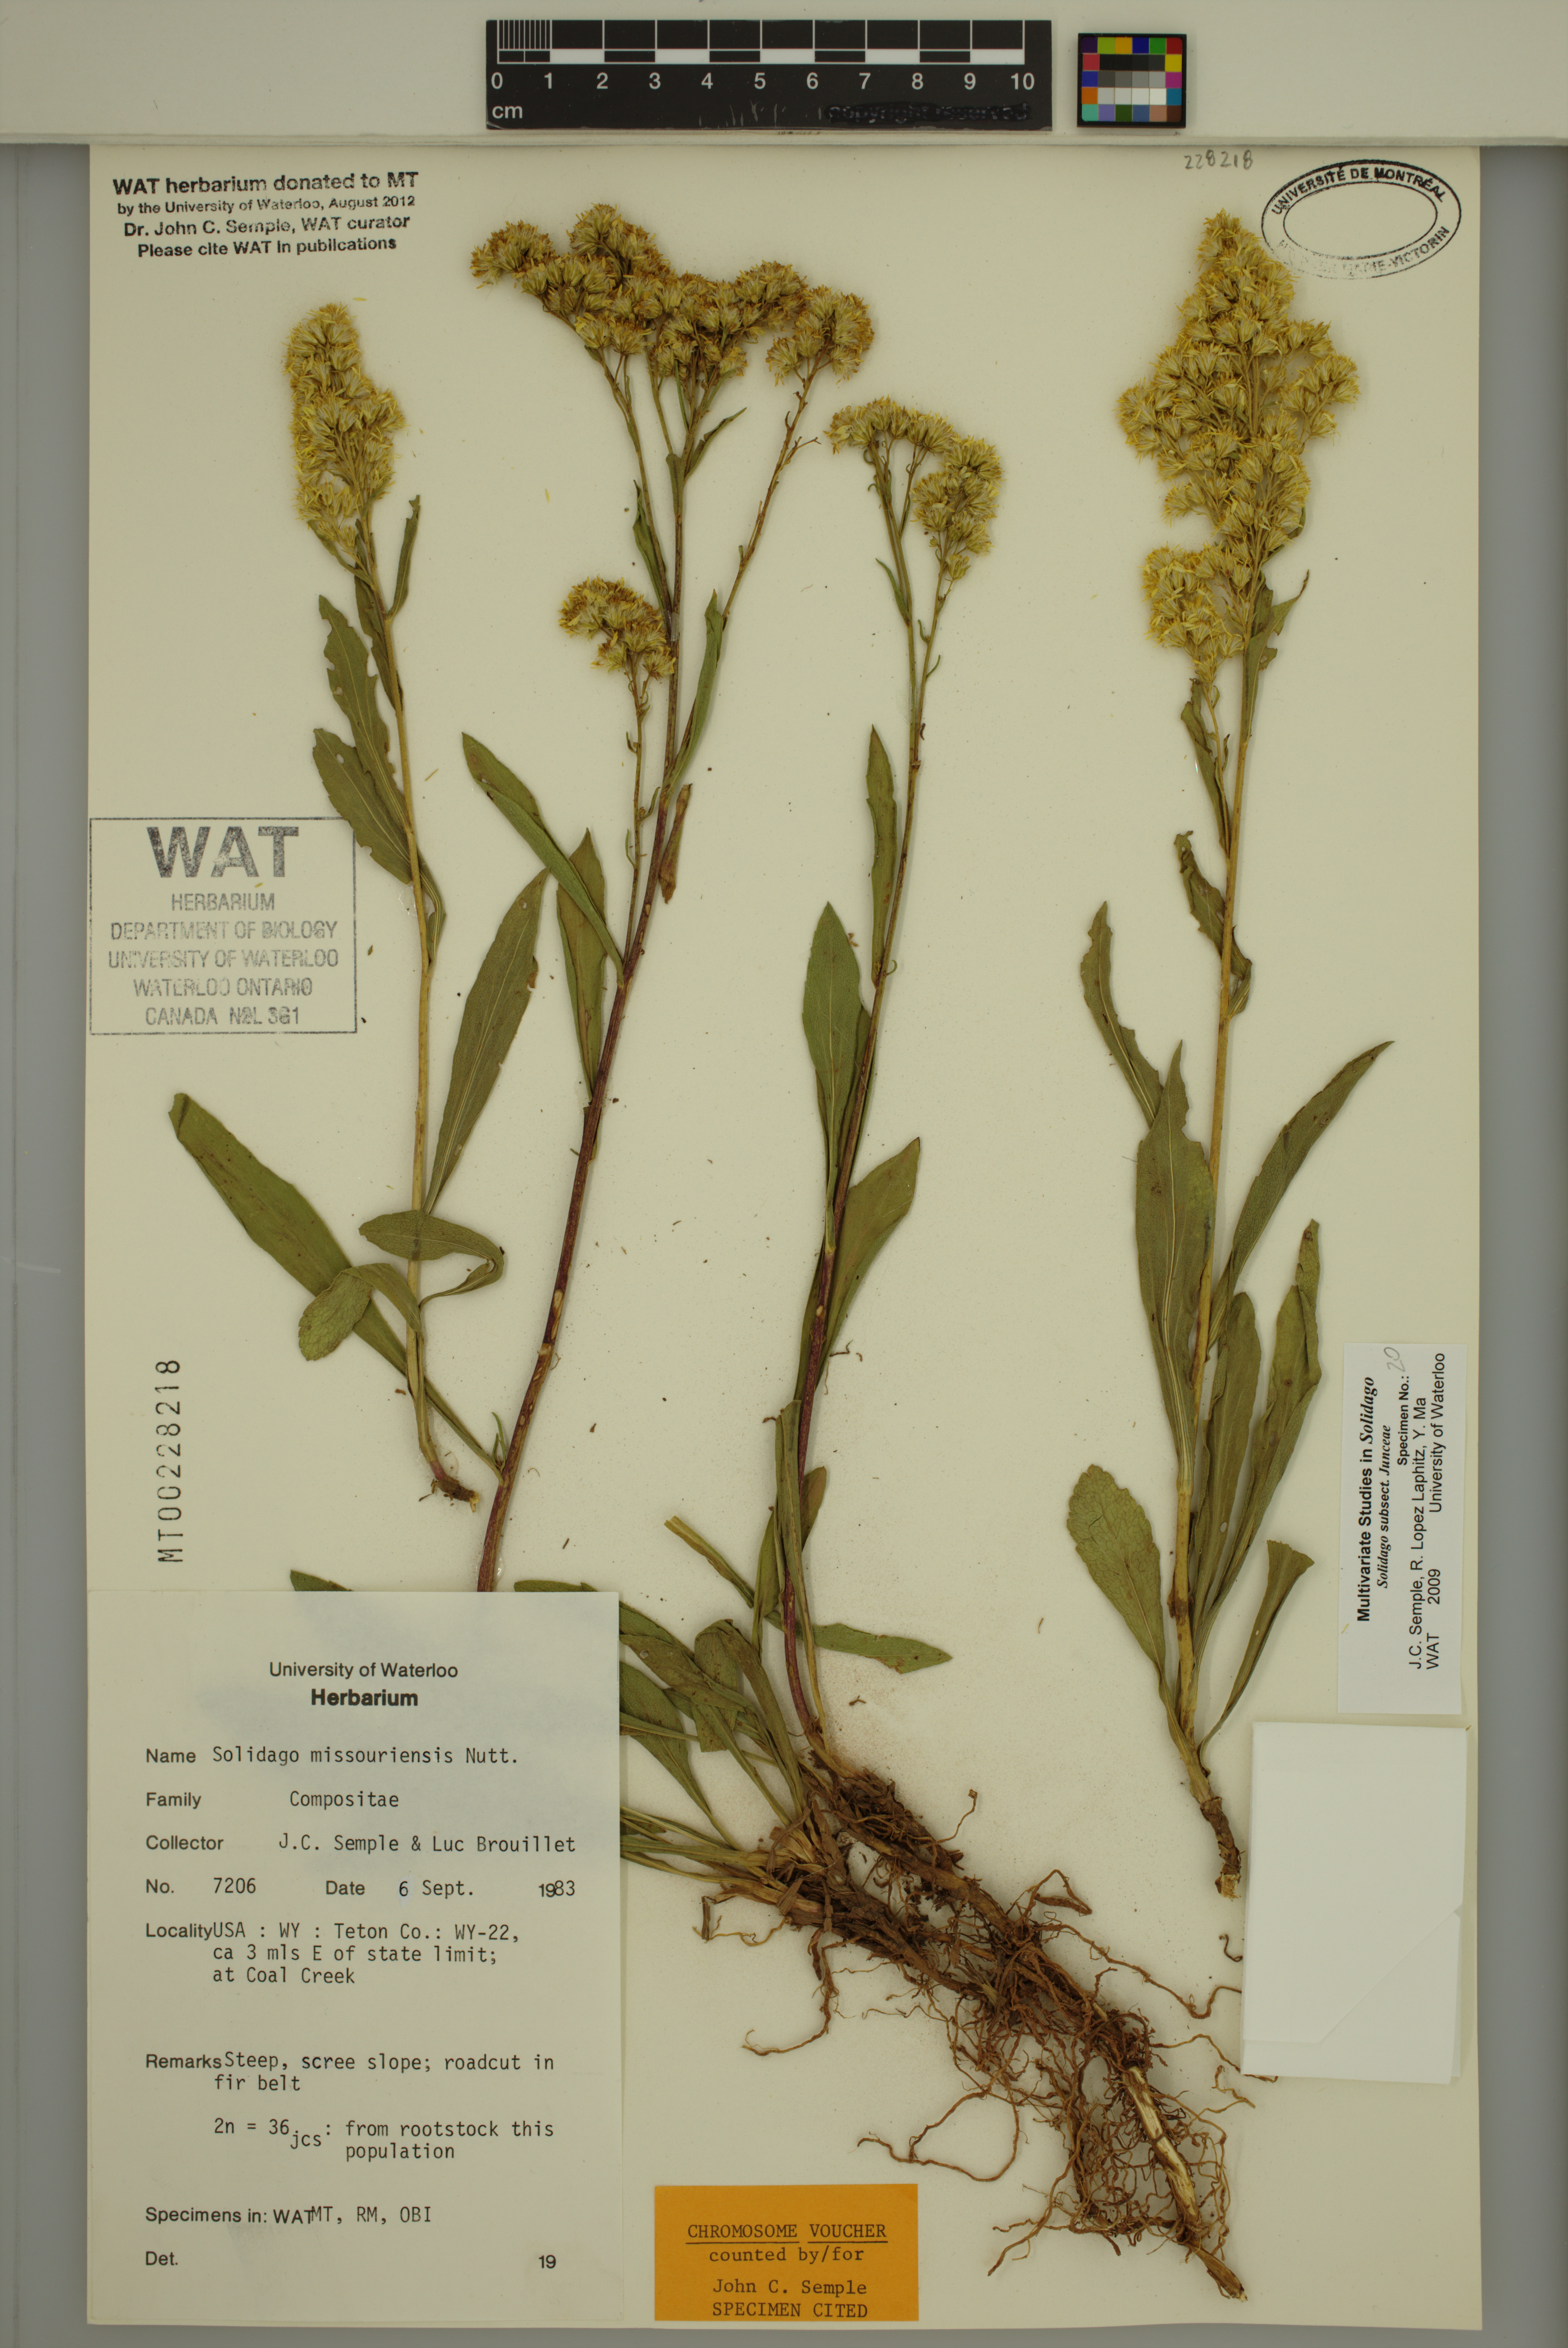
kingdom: Plantae
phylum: Tracheophyta
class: Magnoliopsida
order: Asterales
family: Asteraceae
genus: Solidago
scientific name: Solidago missouriensis
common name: Prairie goldenrod
